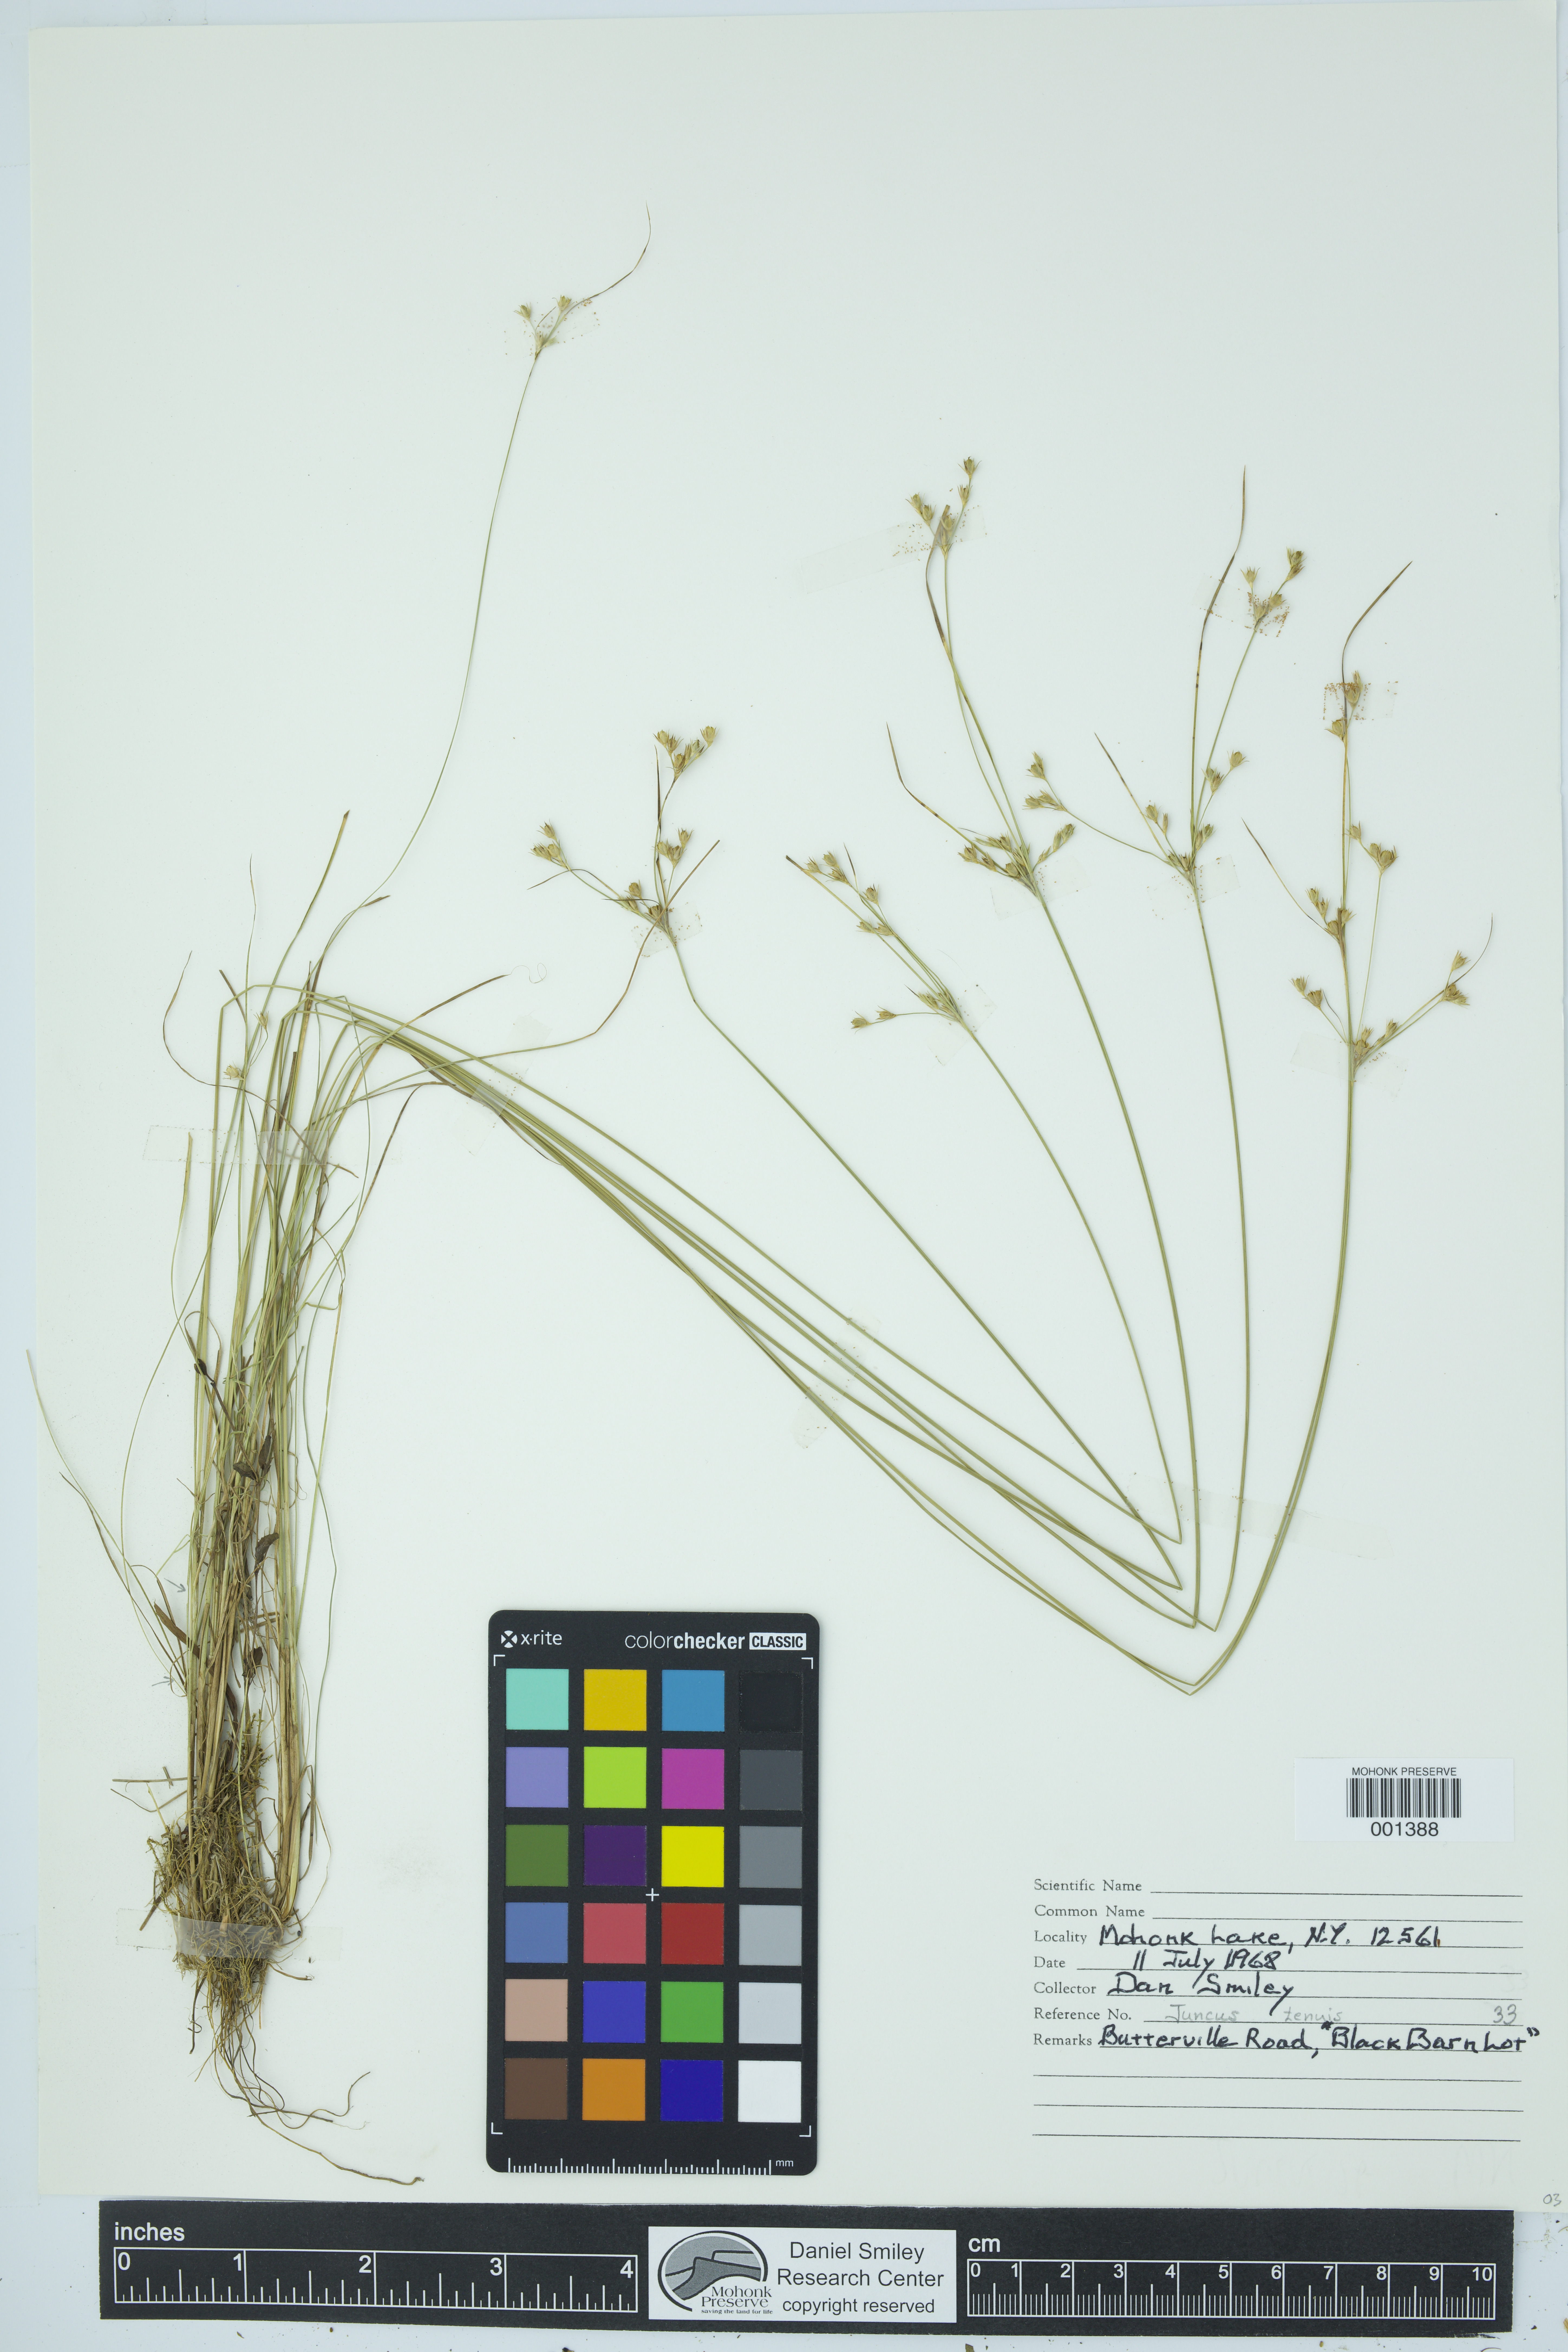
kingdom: Plantae
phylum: Tracheophyta
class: Liliopsida
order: Poales
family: Juncaceae
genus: Juncus
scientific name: Juncus tenuis
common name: Slender rush
